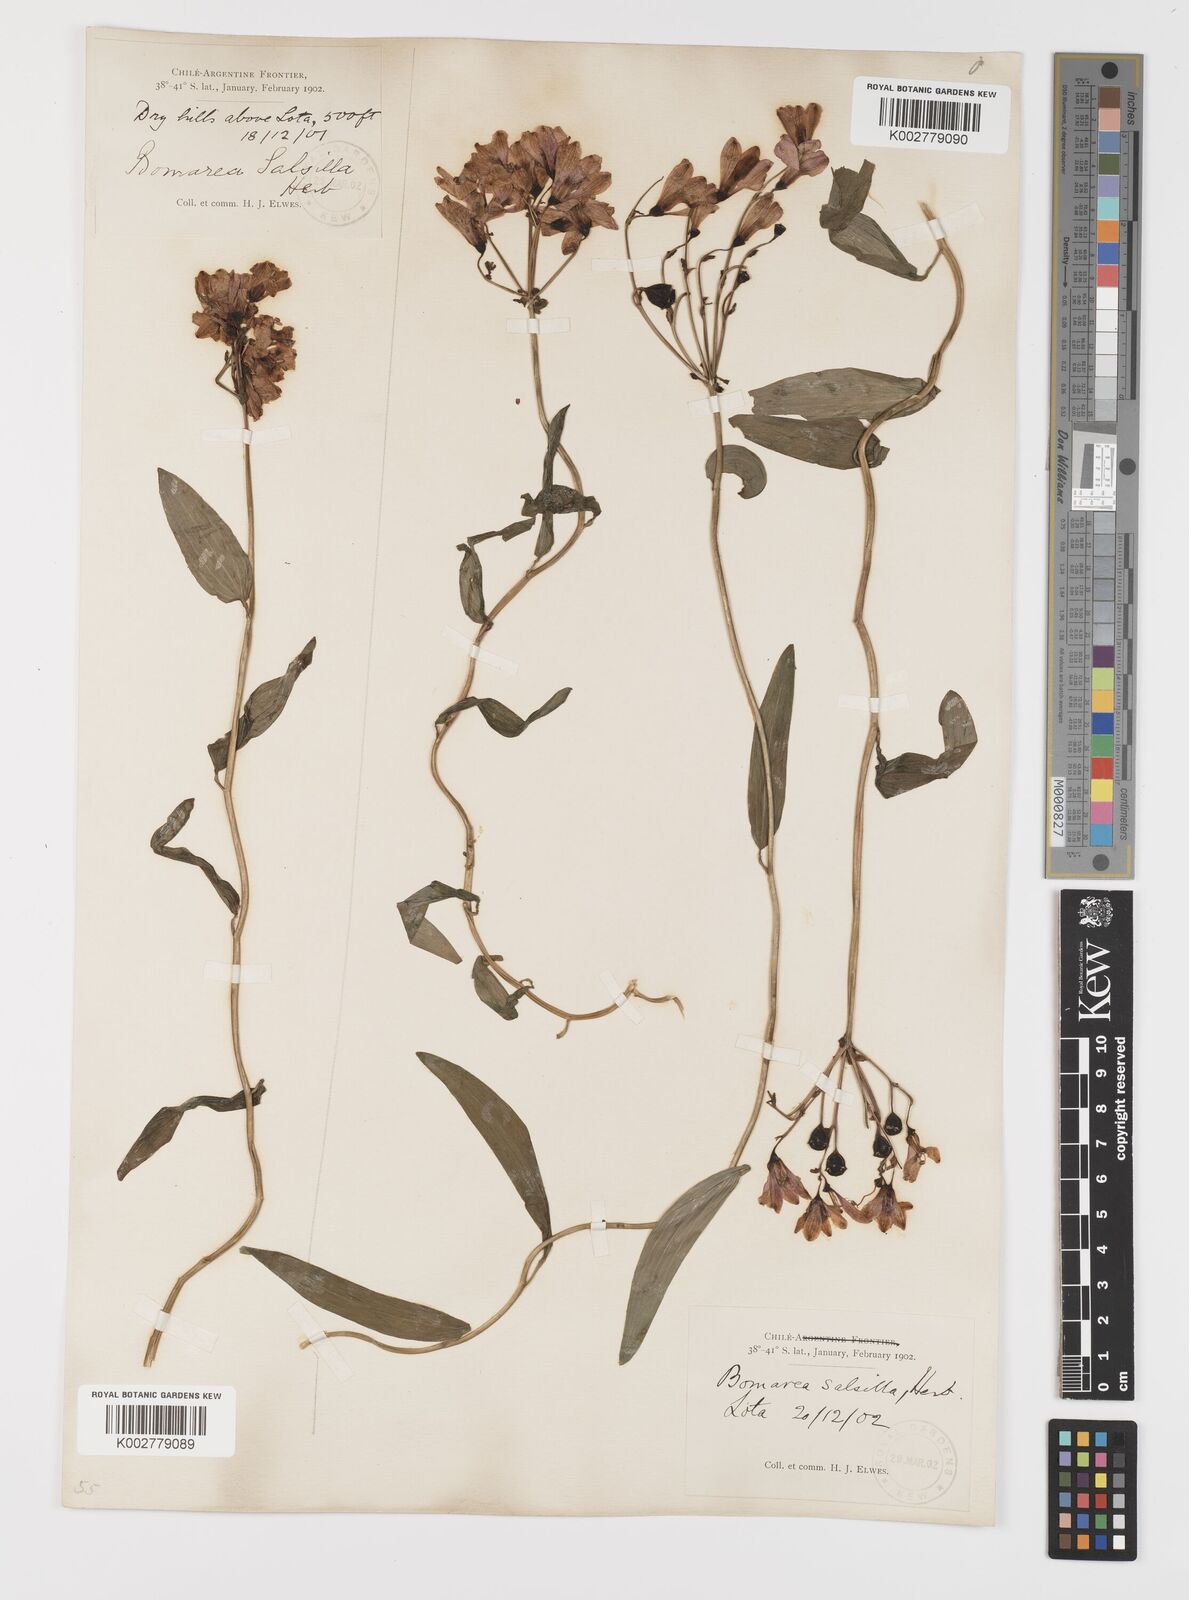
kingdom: Plantae
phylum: Tracheophyta
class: Liliopsida
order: Liliales
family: Alstroemeriaceae
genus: Bomarea
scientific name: Bomarea edulis
